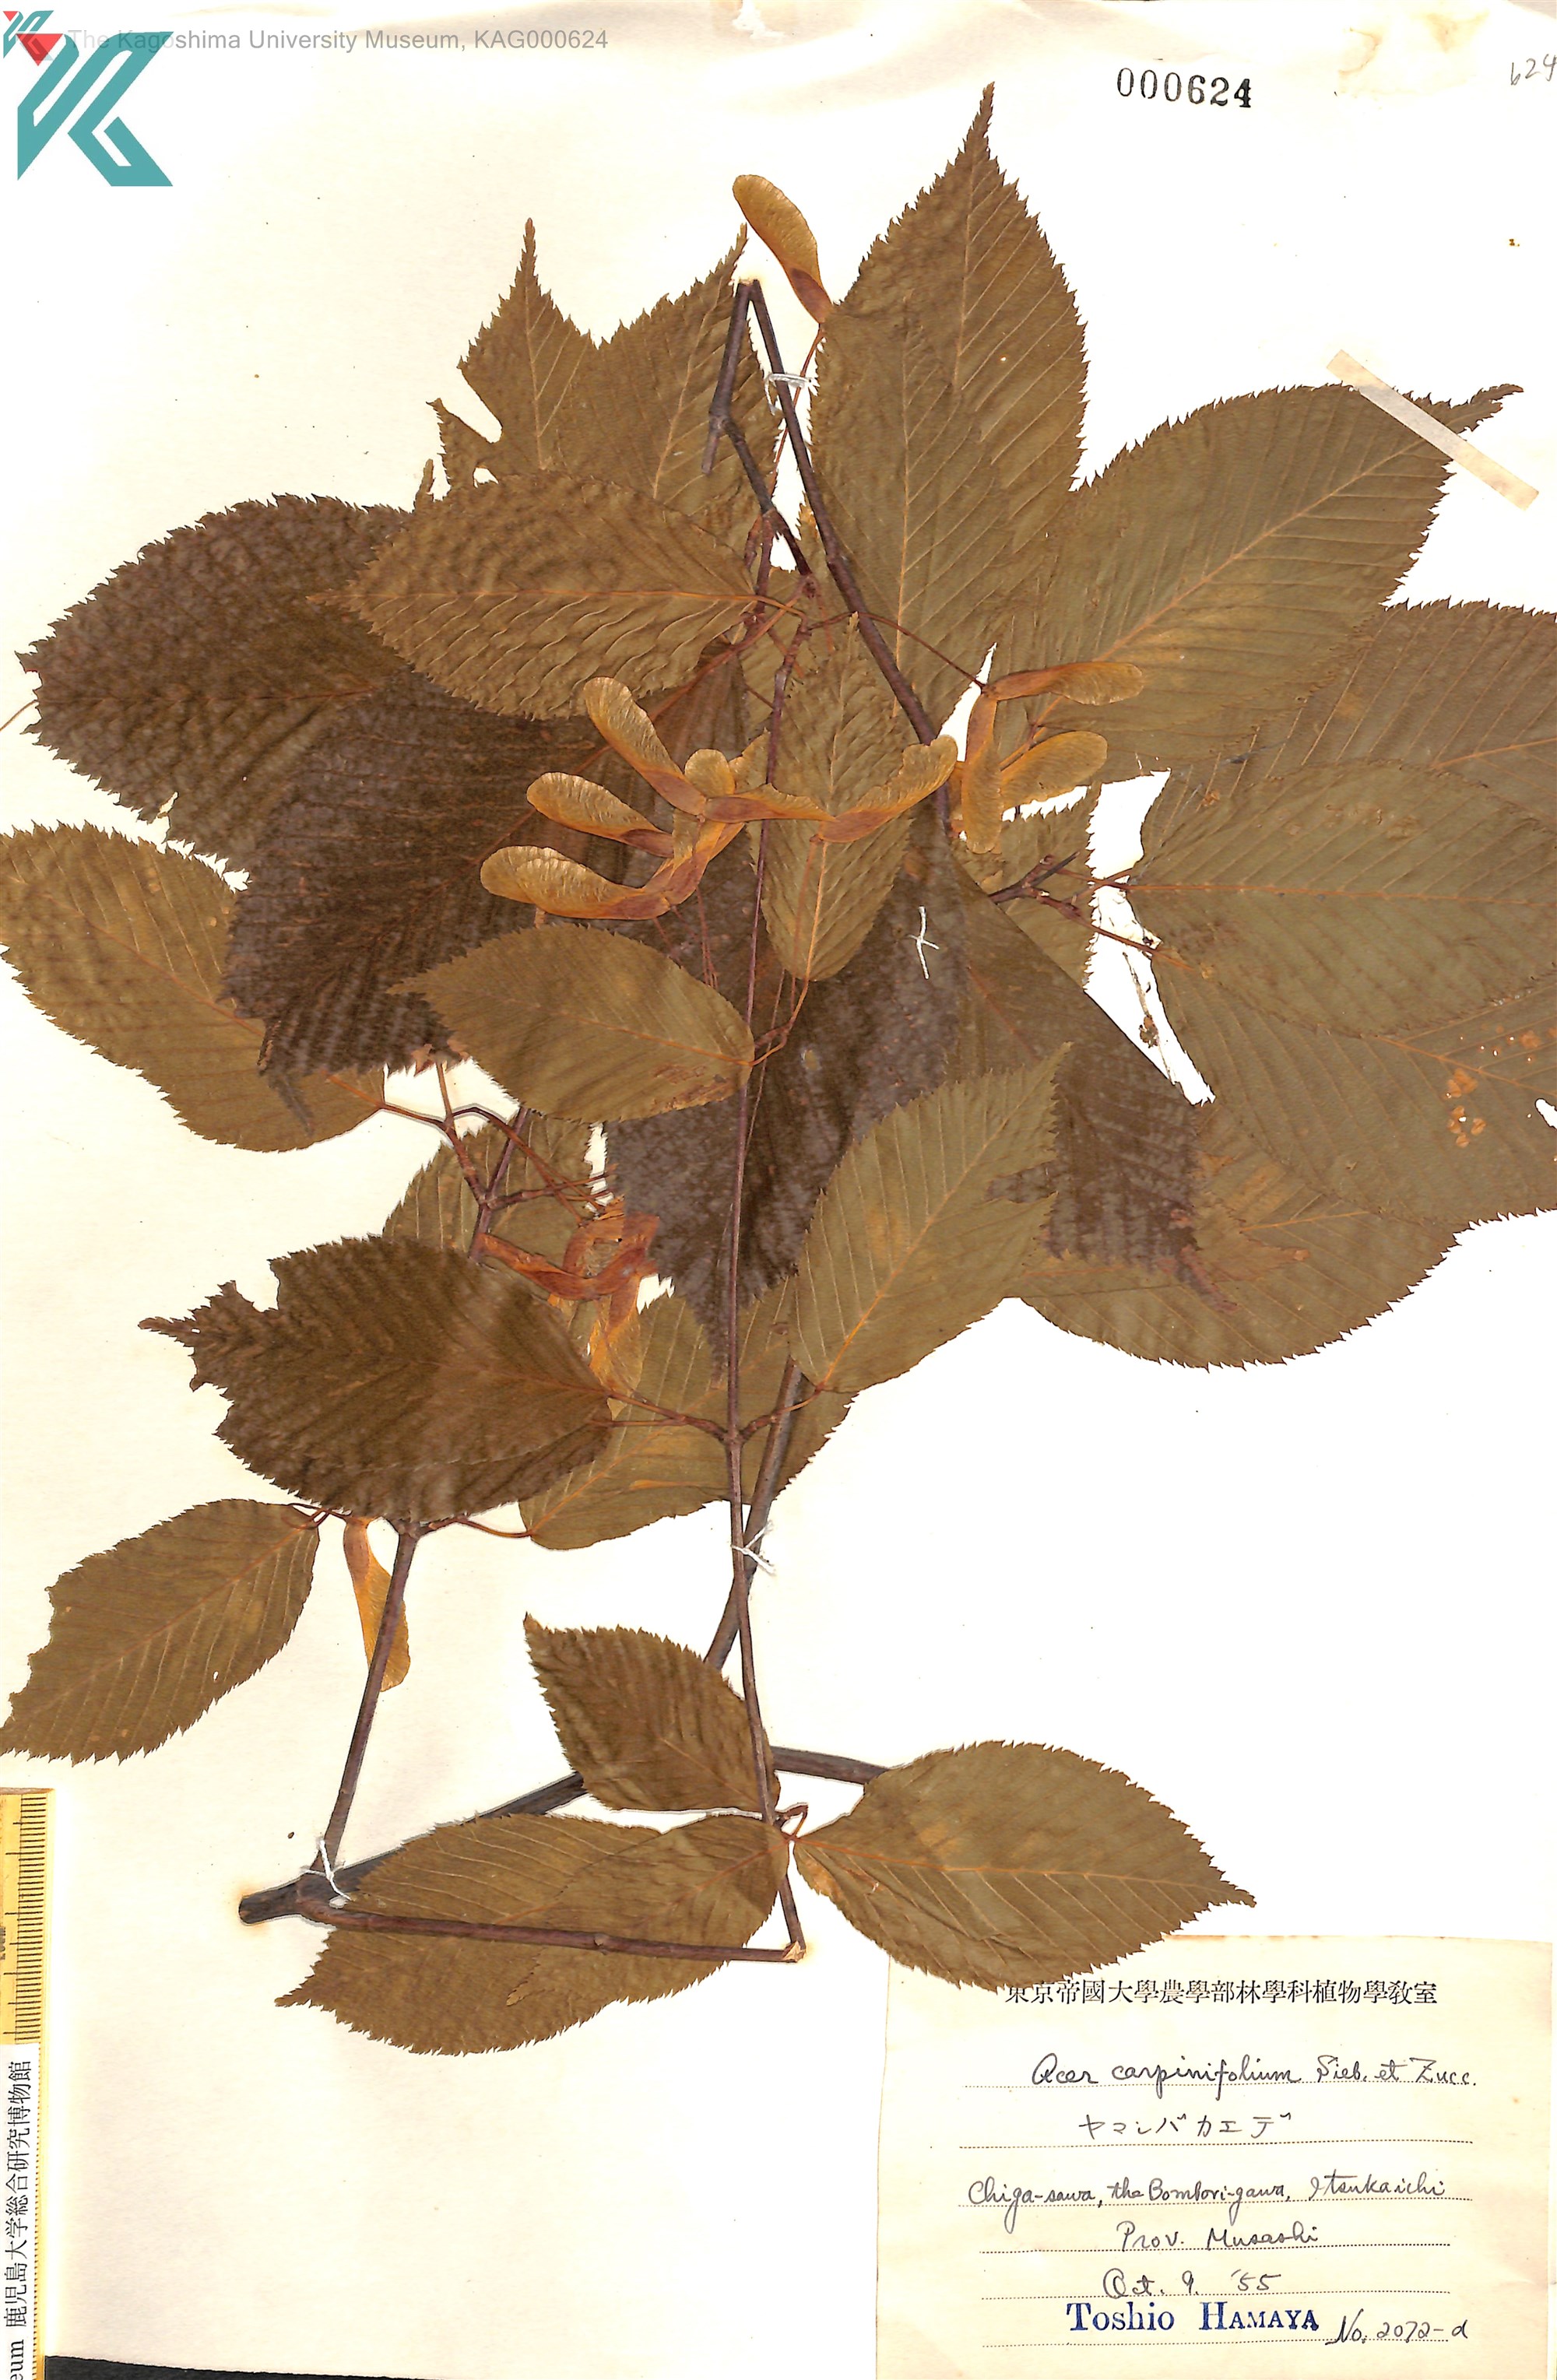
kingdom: Plantae
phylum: Tracheophyta
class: Magnoliopsida
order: Sapindales
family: Sapindaceae
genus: Acer
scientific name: Acer carpinifolium
